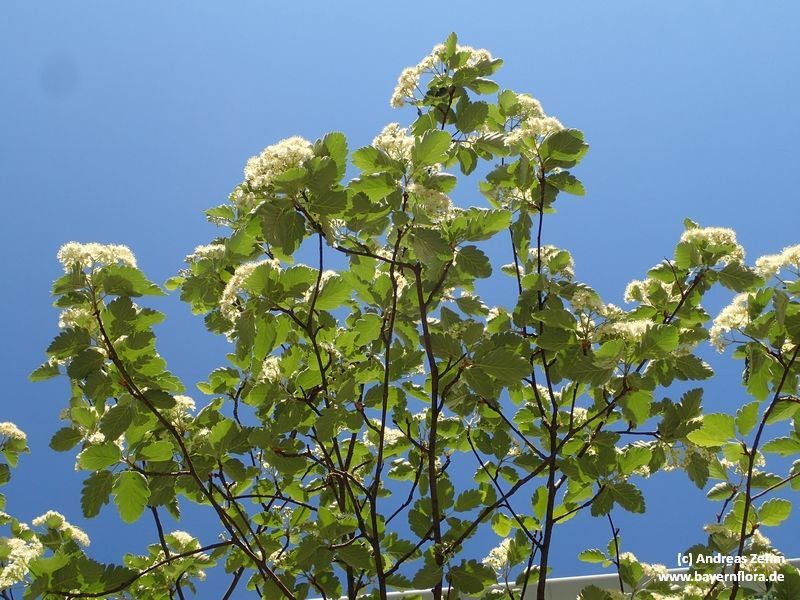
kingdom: Plantae
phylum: Tracheophyta
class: Magnoliopsida
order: Rosales
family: Rosaceae
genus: Scandosorbus
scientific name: Scandosorbus intermedia
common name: Swedish whitebeam
